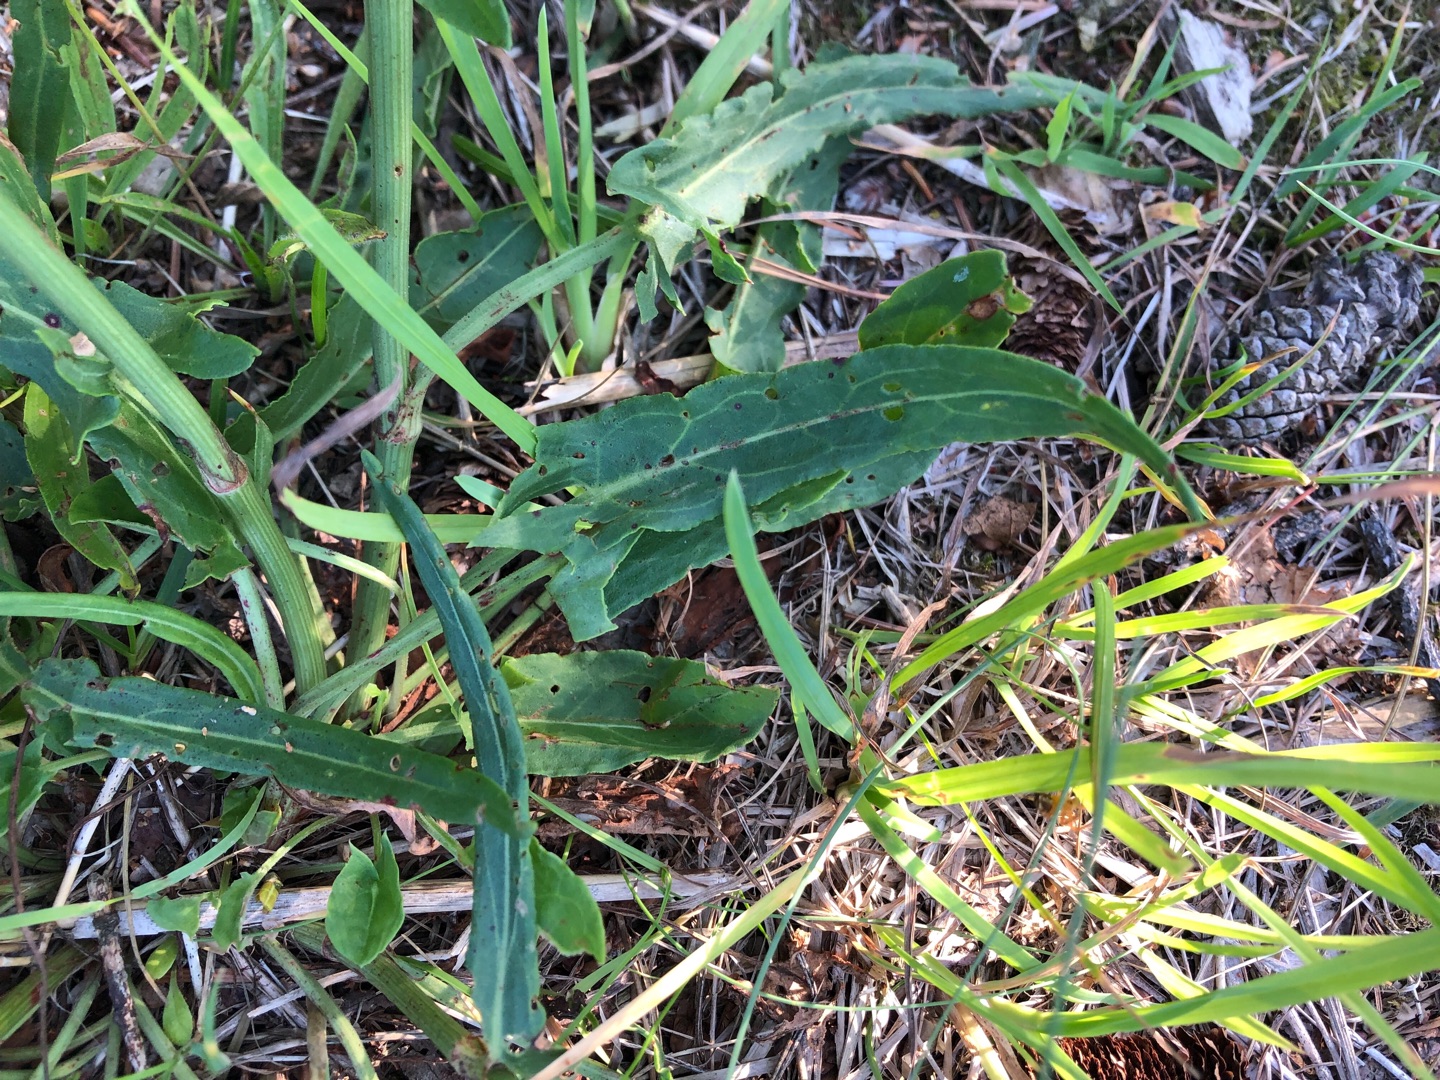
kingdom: Plantae
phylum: Tracheophyta
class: Magnoliopsida
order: Caryophyllales
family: Polygonaceae
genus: Rumex
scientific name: Rumex thyrsiflorus
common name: Dusk-syre
